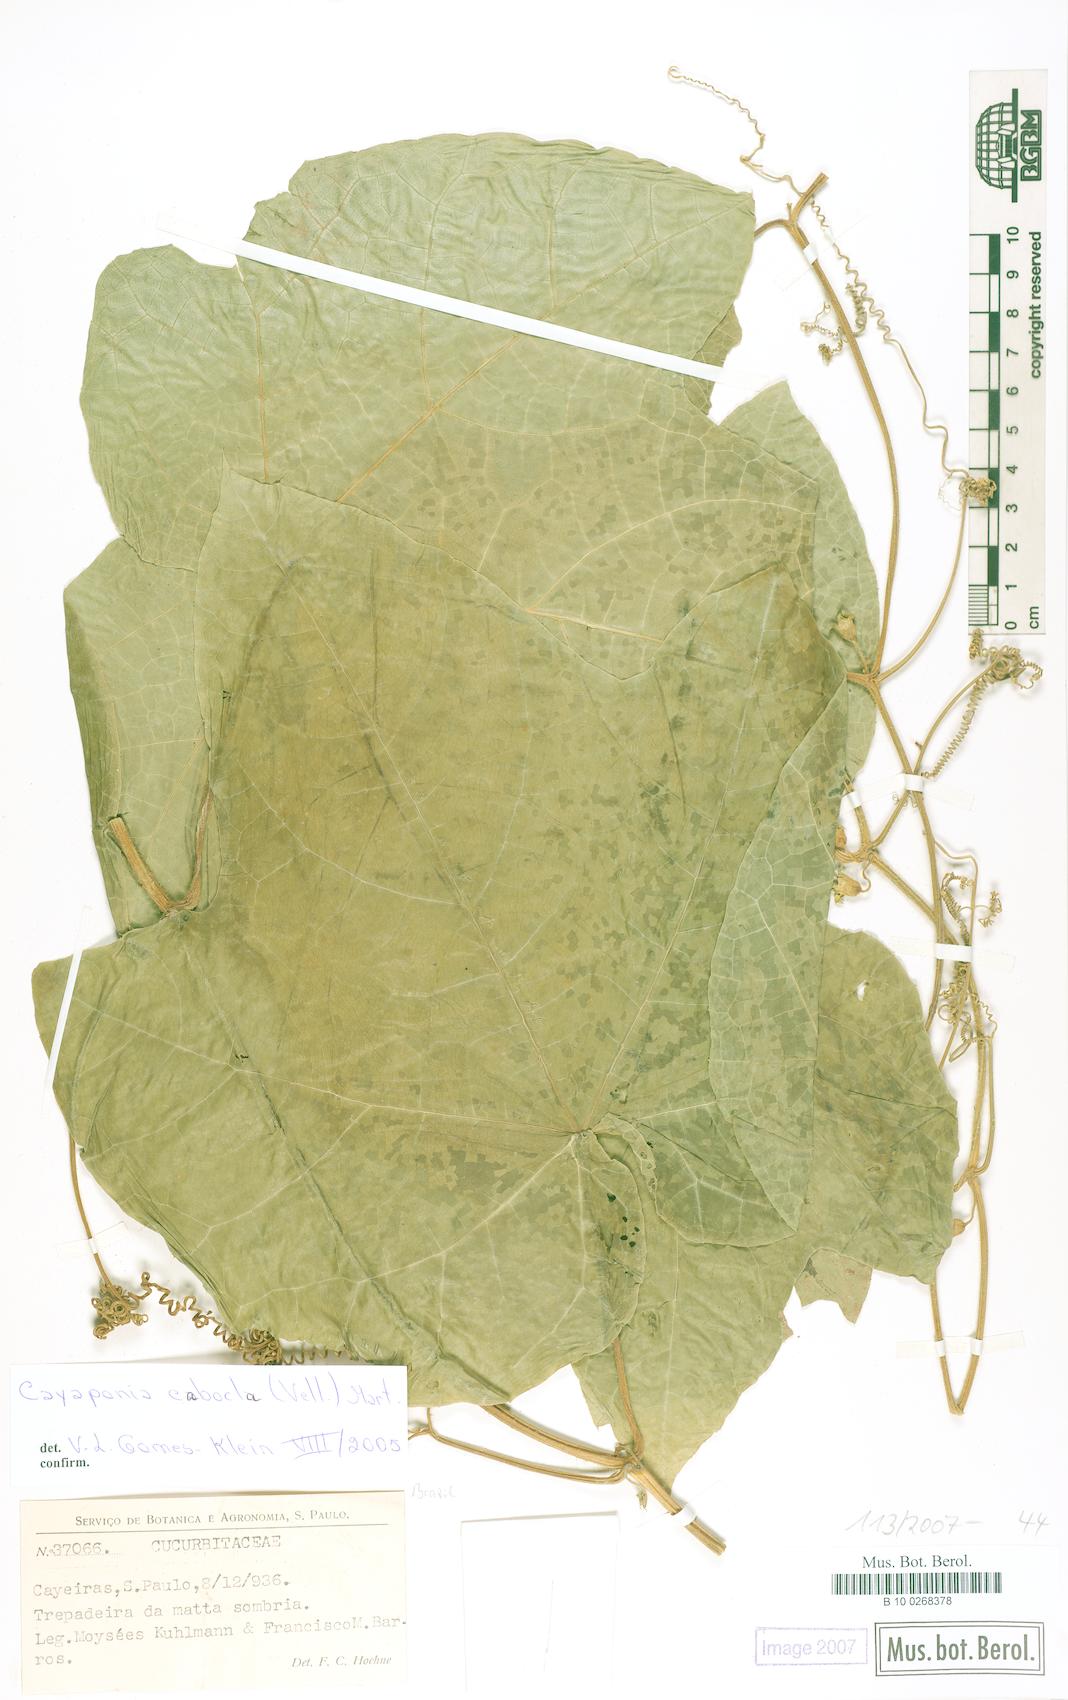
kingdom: Plantae
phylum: Tracheophyta
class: Magnoliopsida
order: Cucurbitales
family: Cucurbitaceae
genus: Cayaponia
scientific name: Cayaponia cabocla
